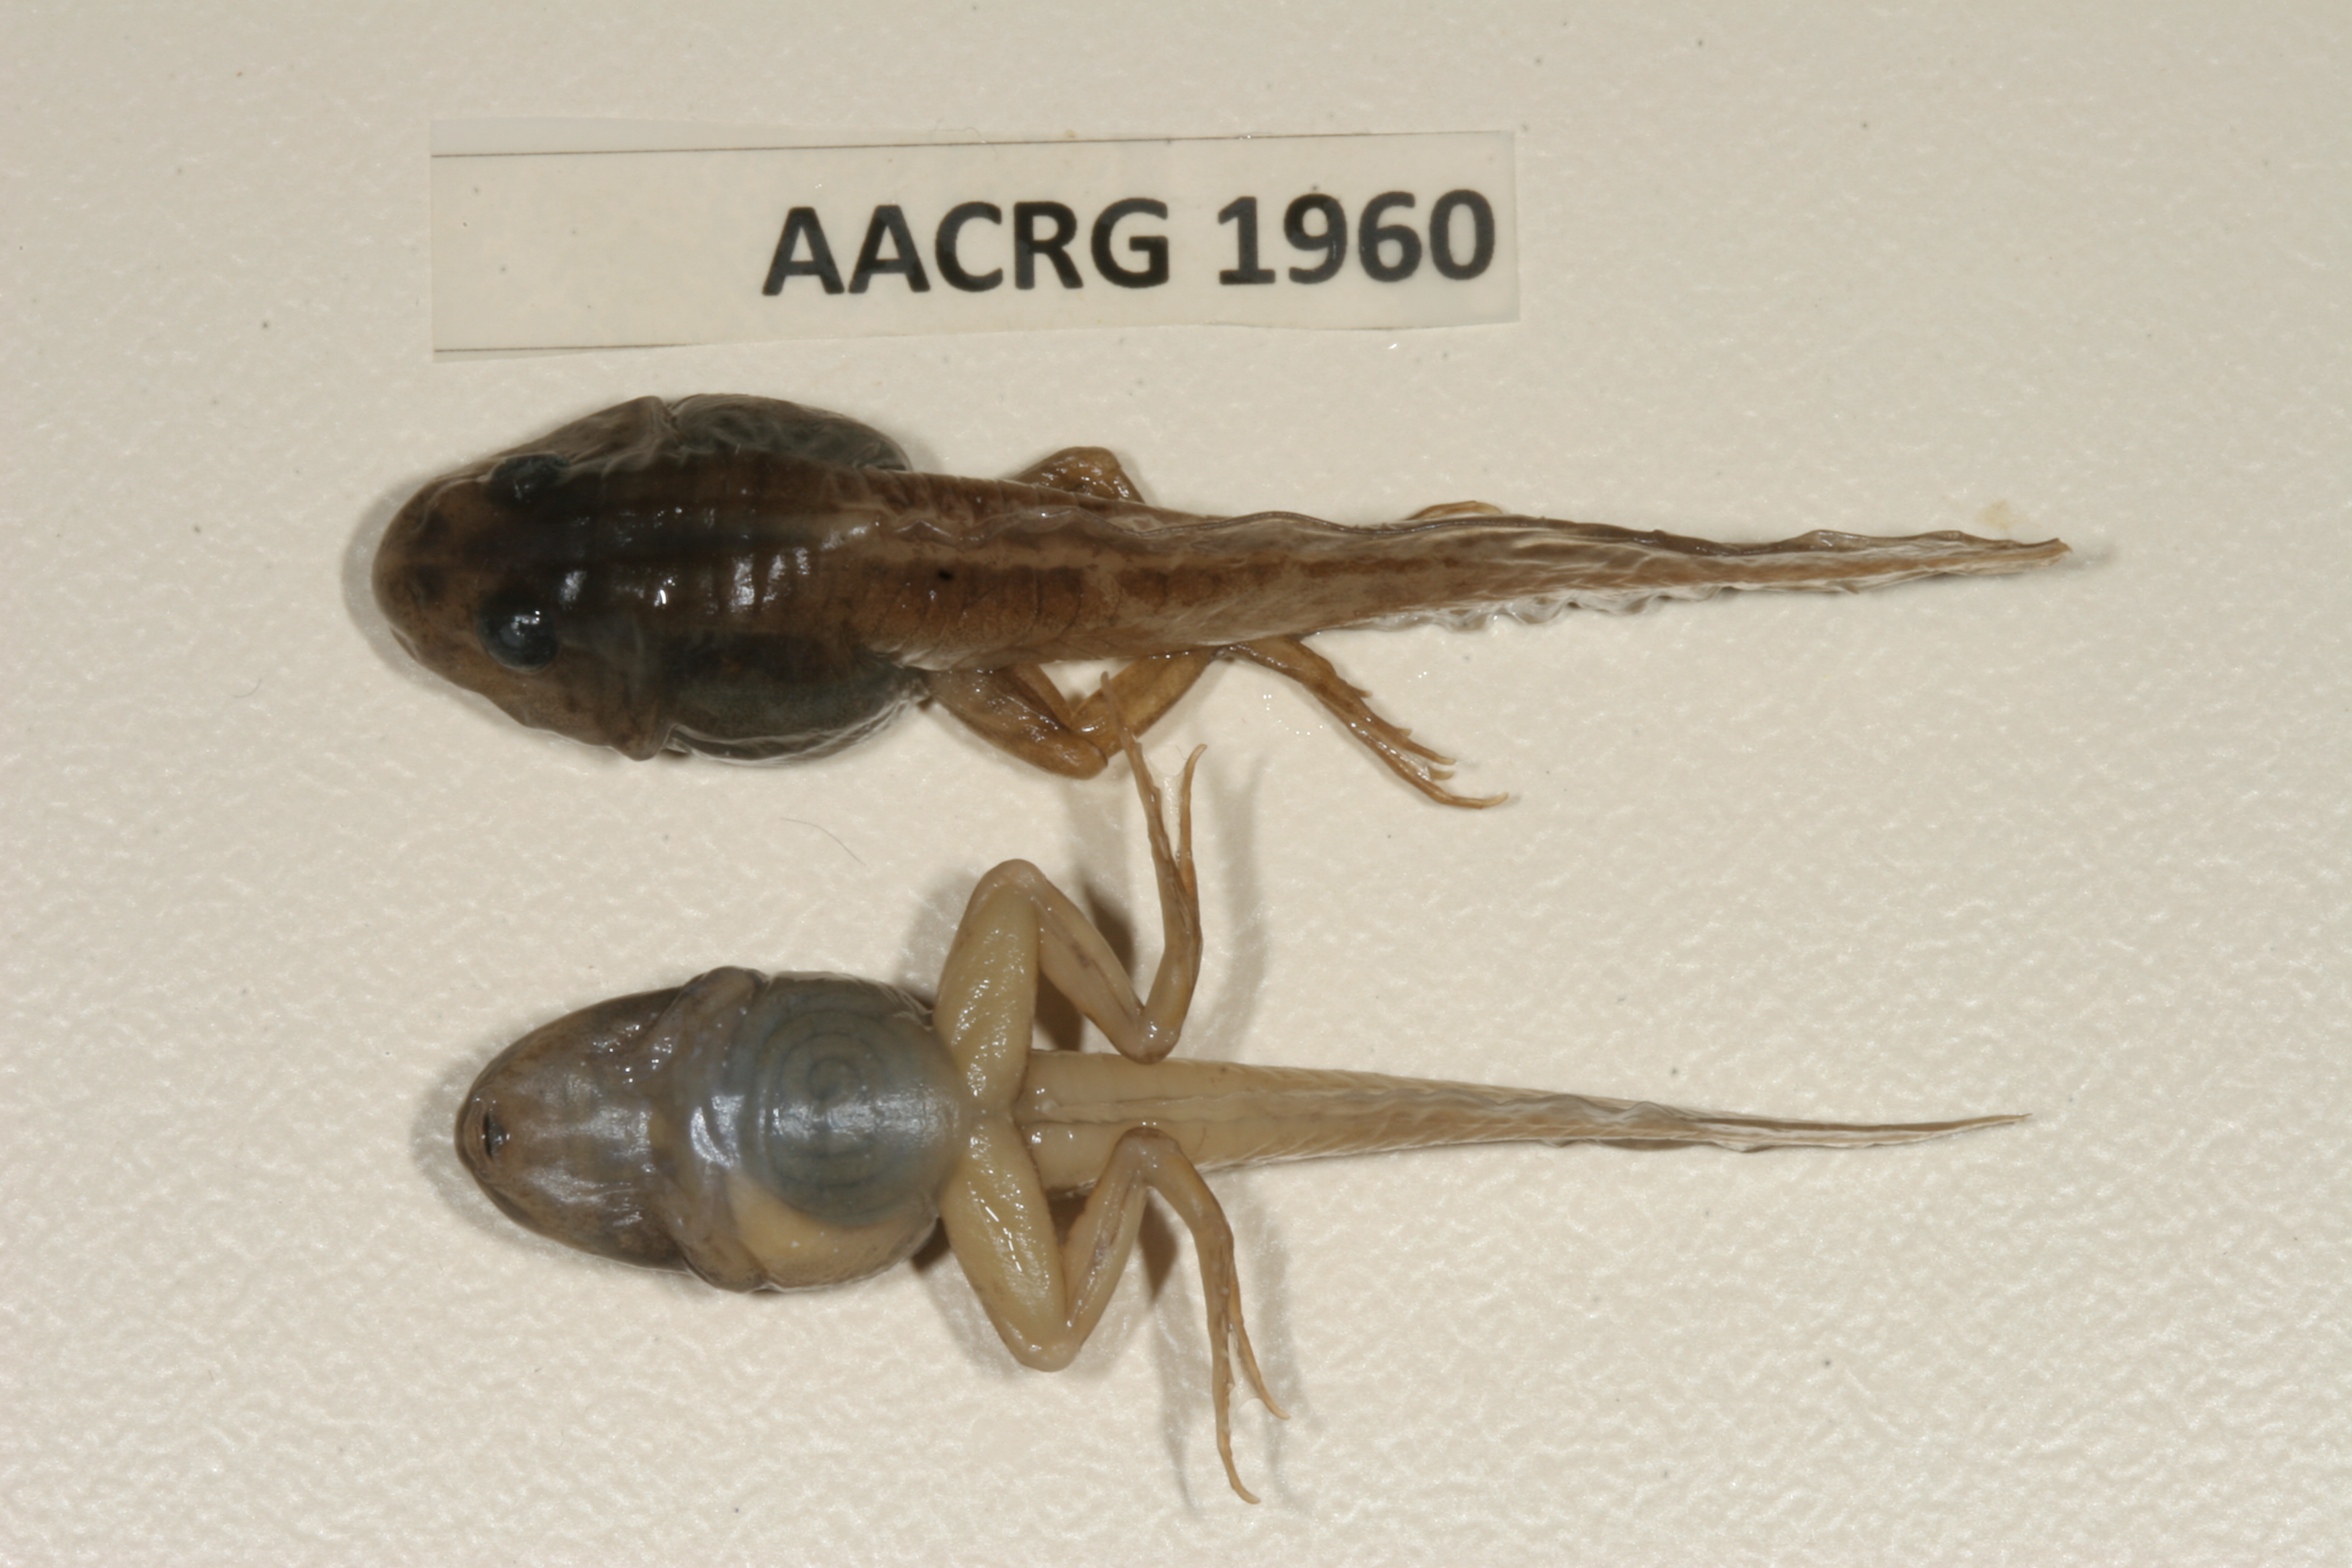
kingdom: Animalia
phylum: Chordata
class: Amphibia
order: Anura
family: Ptychadenidae
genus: Ptychadena
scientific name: Ptychadena mascareniensis
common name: Mascarene grass frog
